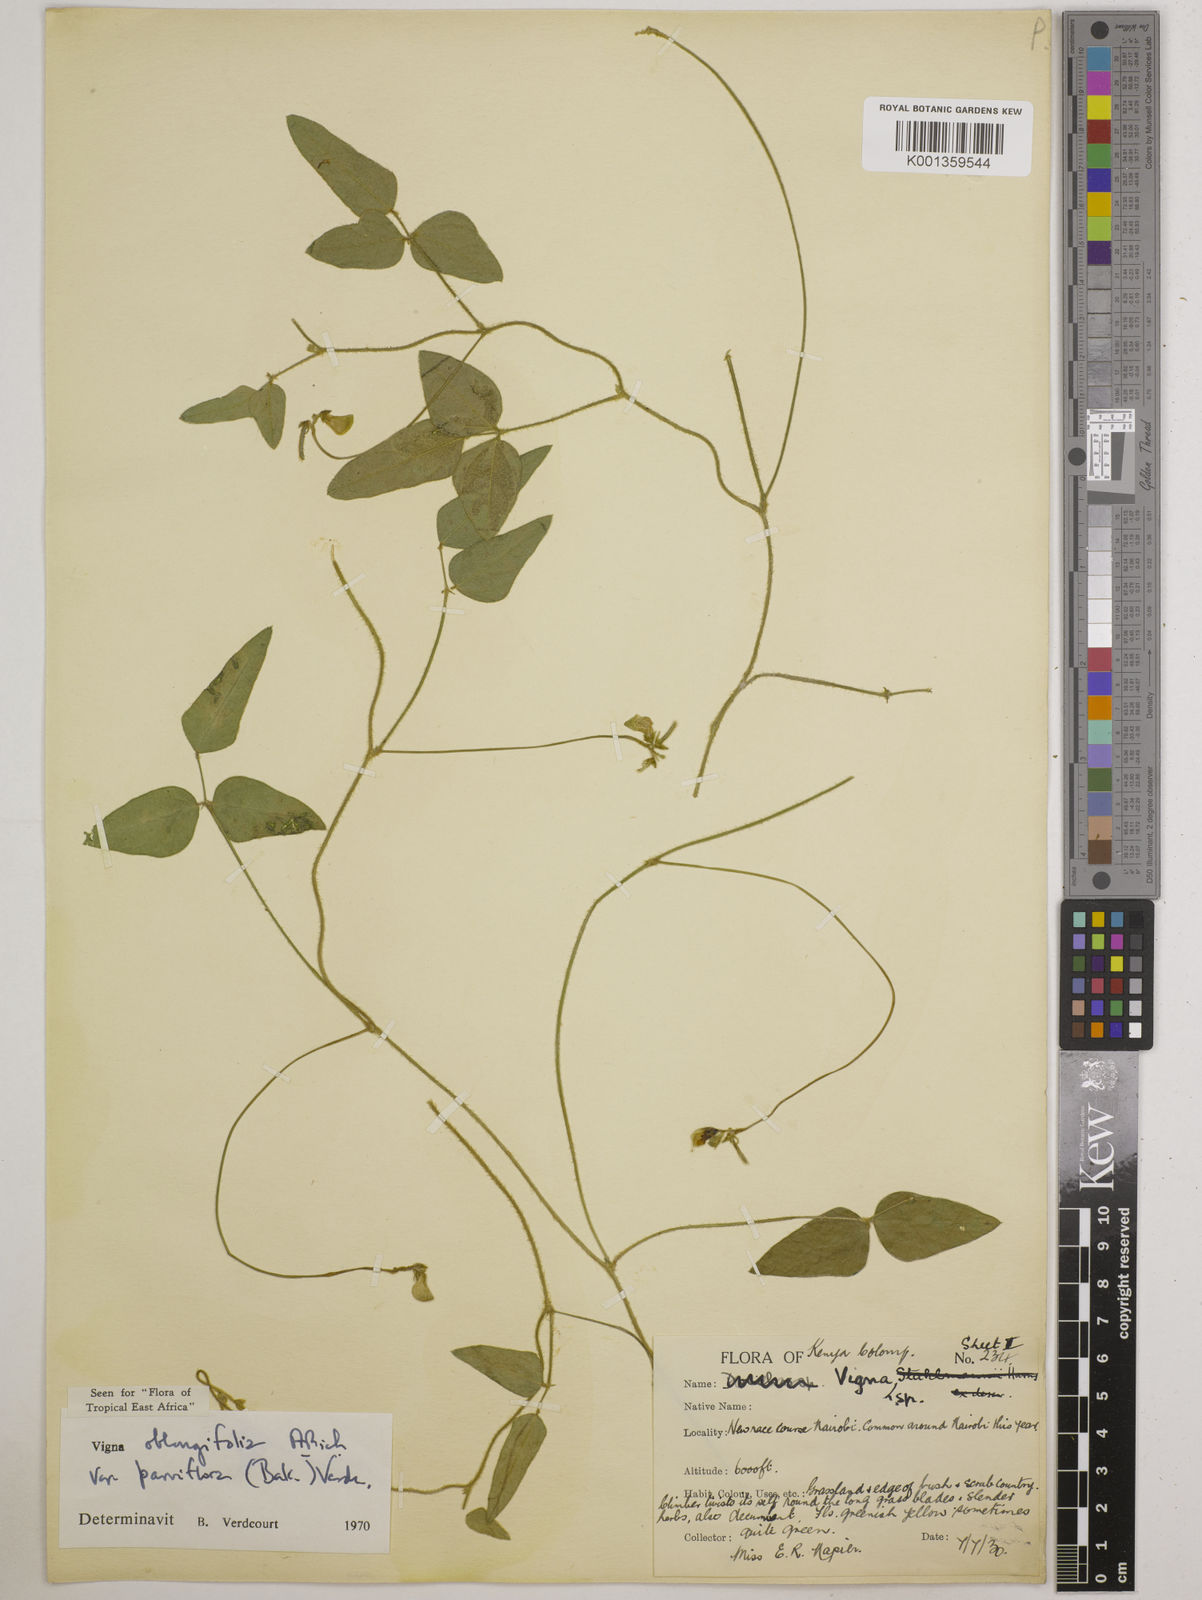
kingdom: Plantae
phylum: Tracheophyta
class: Magnoliopsida
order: Fabales
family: Fabaceae
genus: Vigna
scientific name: Vigna
